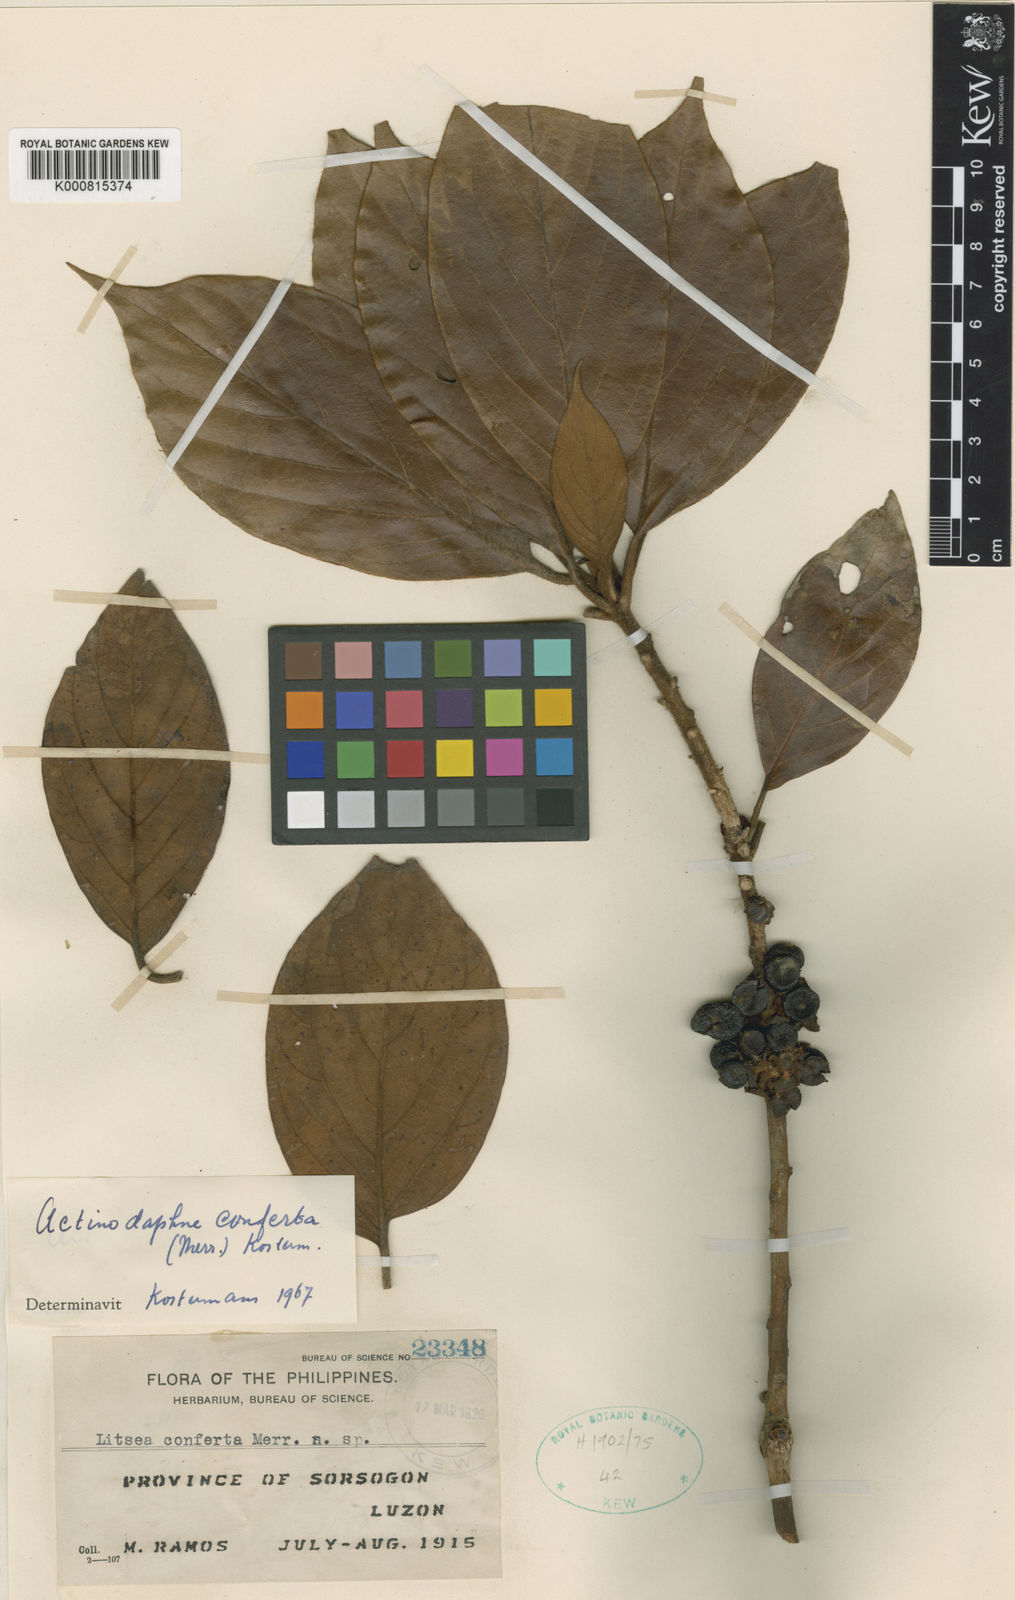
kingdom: Plantae
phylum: Tracheophyta
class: Magnoliopsida
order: Laurales
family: Lauraceae
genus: Actinodaphne
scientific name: Actinodaphne tayabensis
